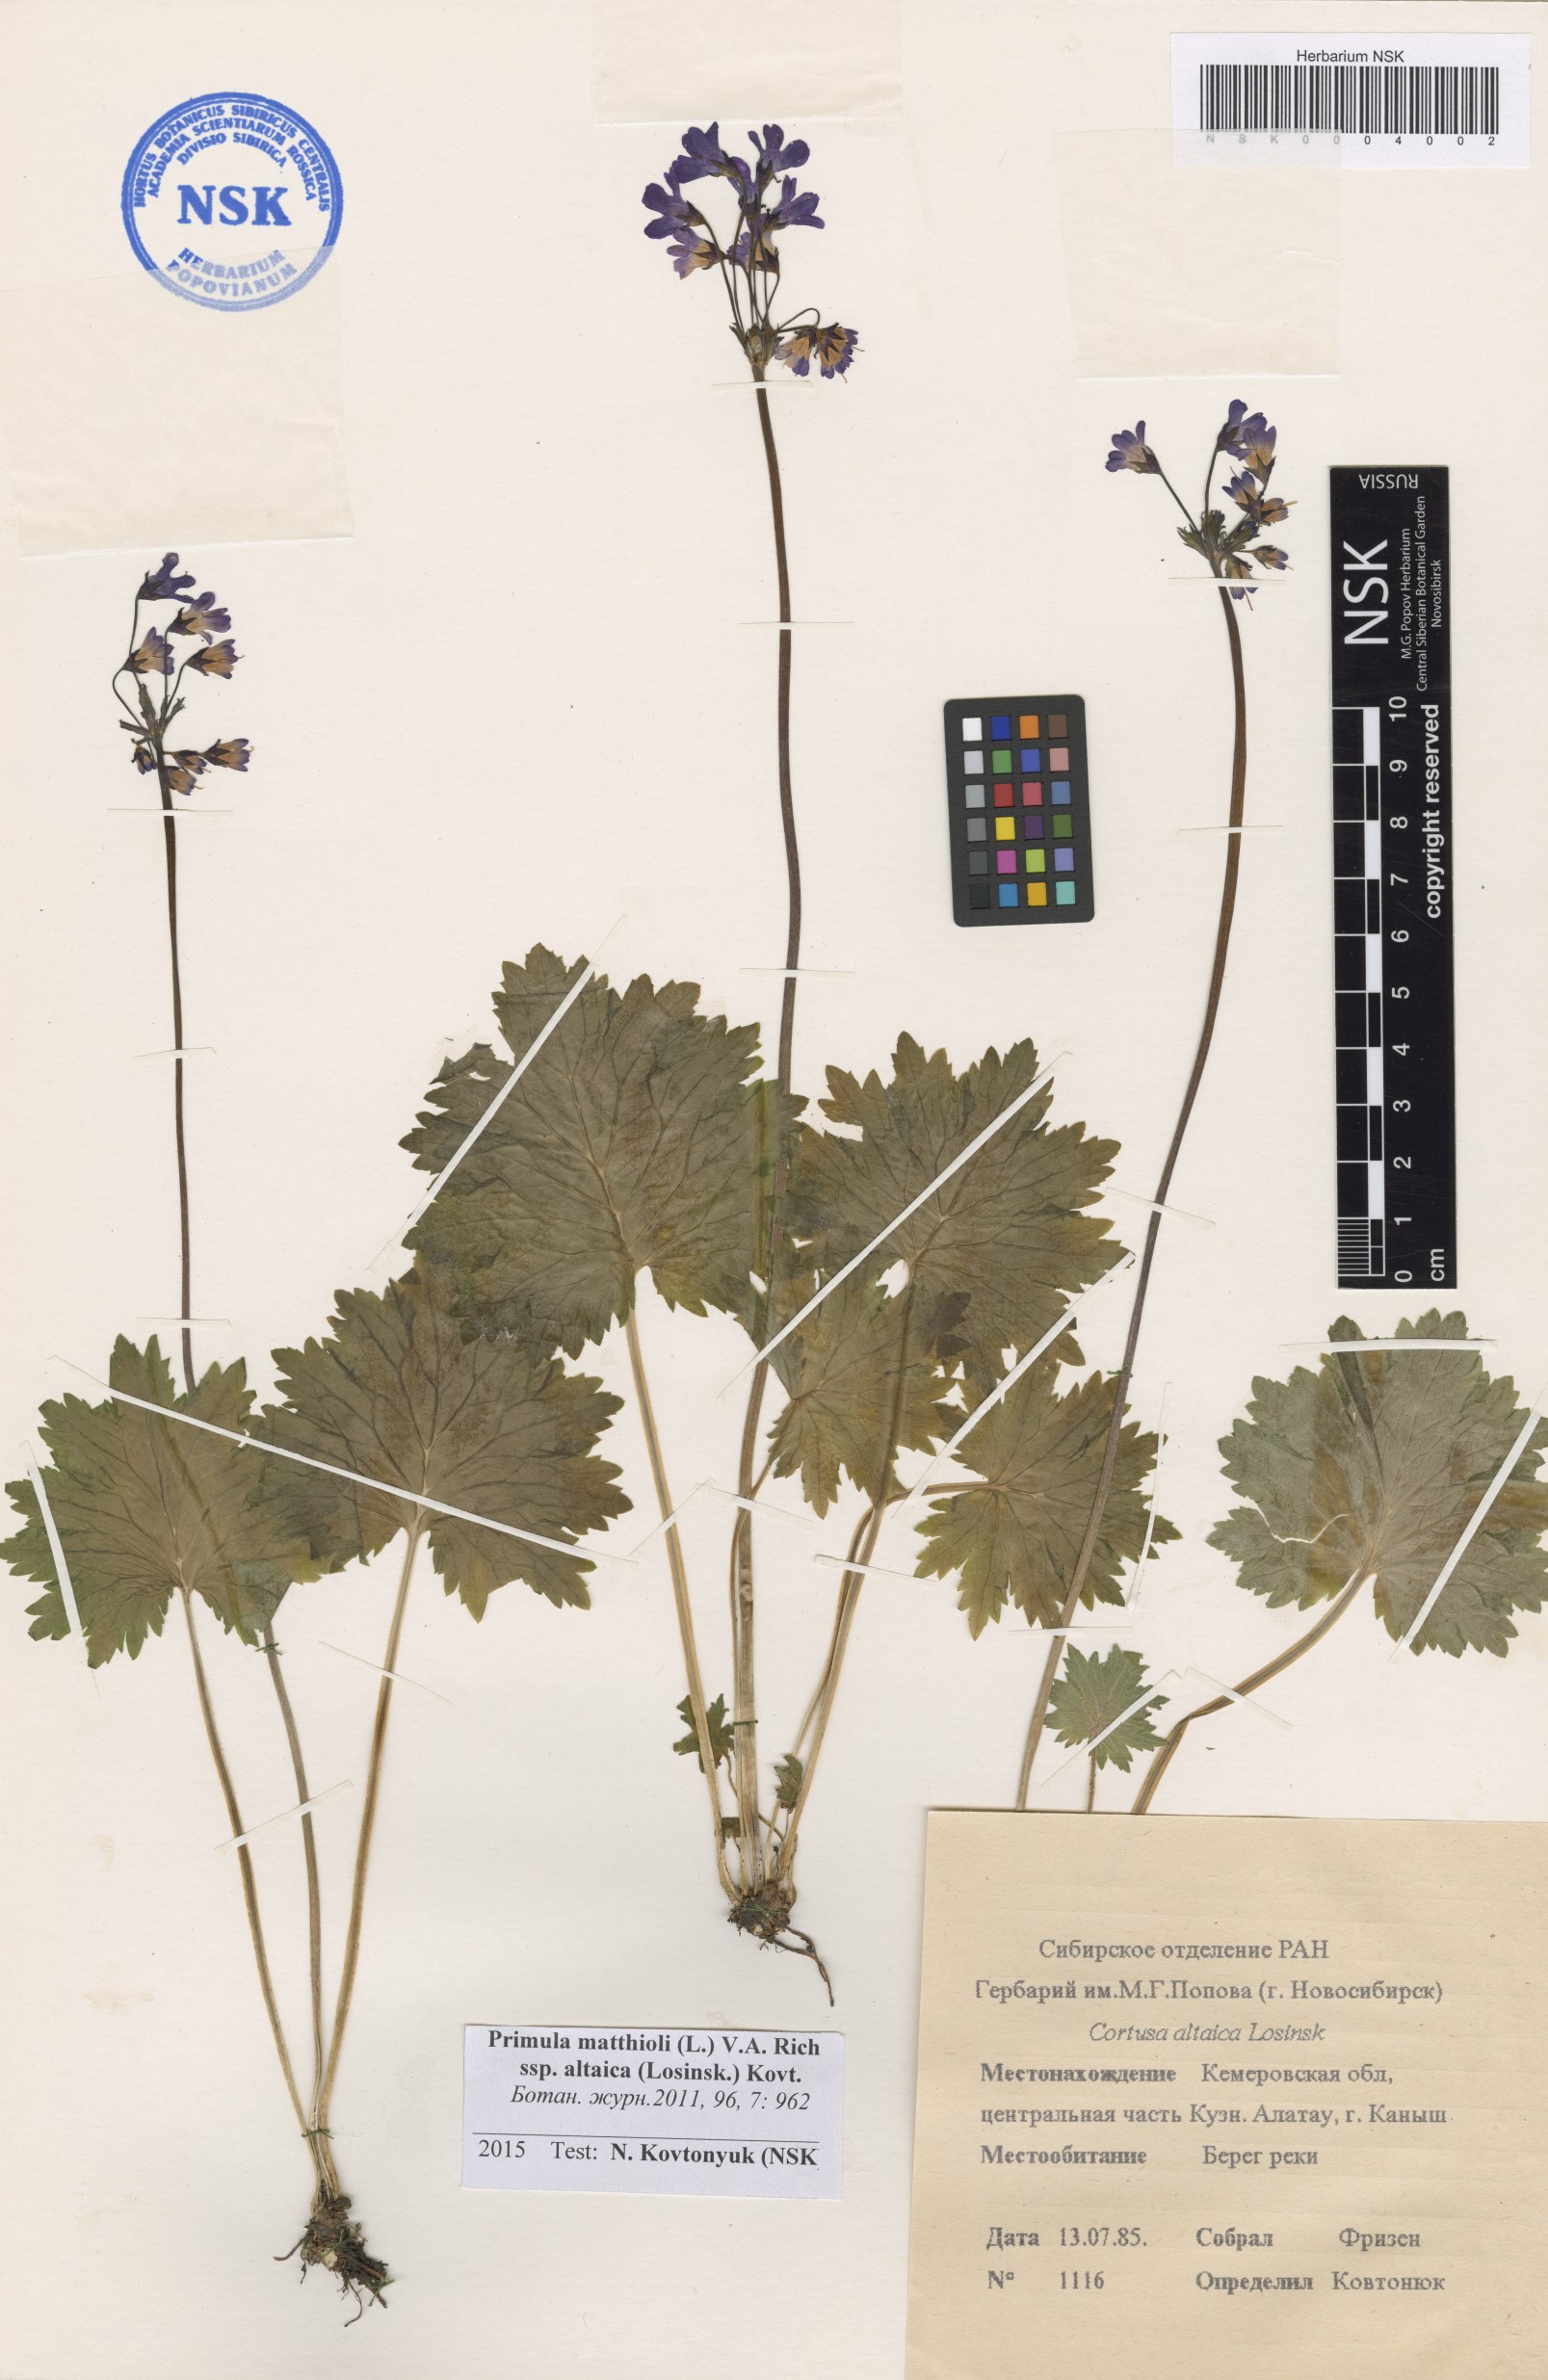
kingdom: Plantae
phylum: Tracheophyta
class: Magnoliopsida
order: Ericales
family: Primulaceae
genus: Primula
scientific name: Primula matthioli
